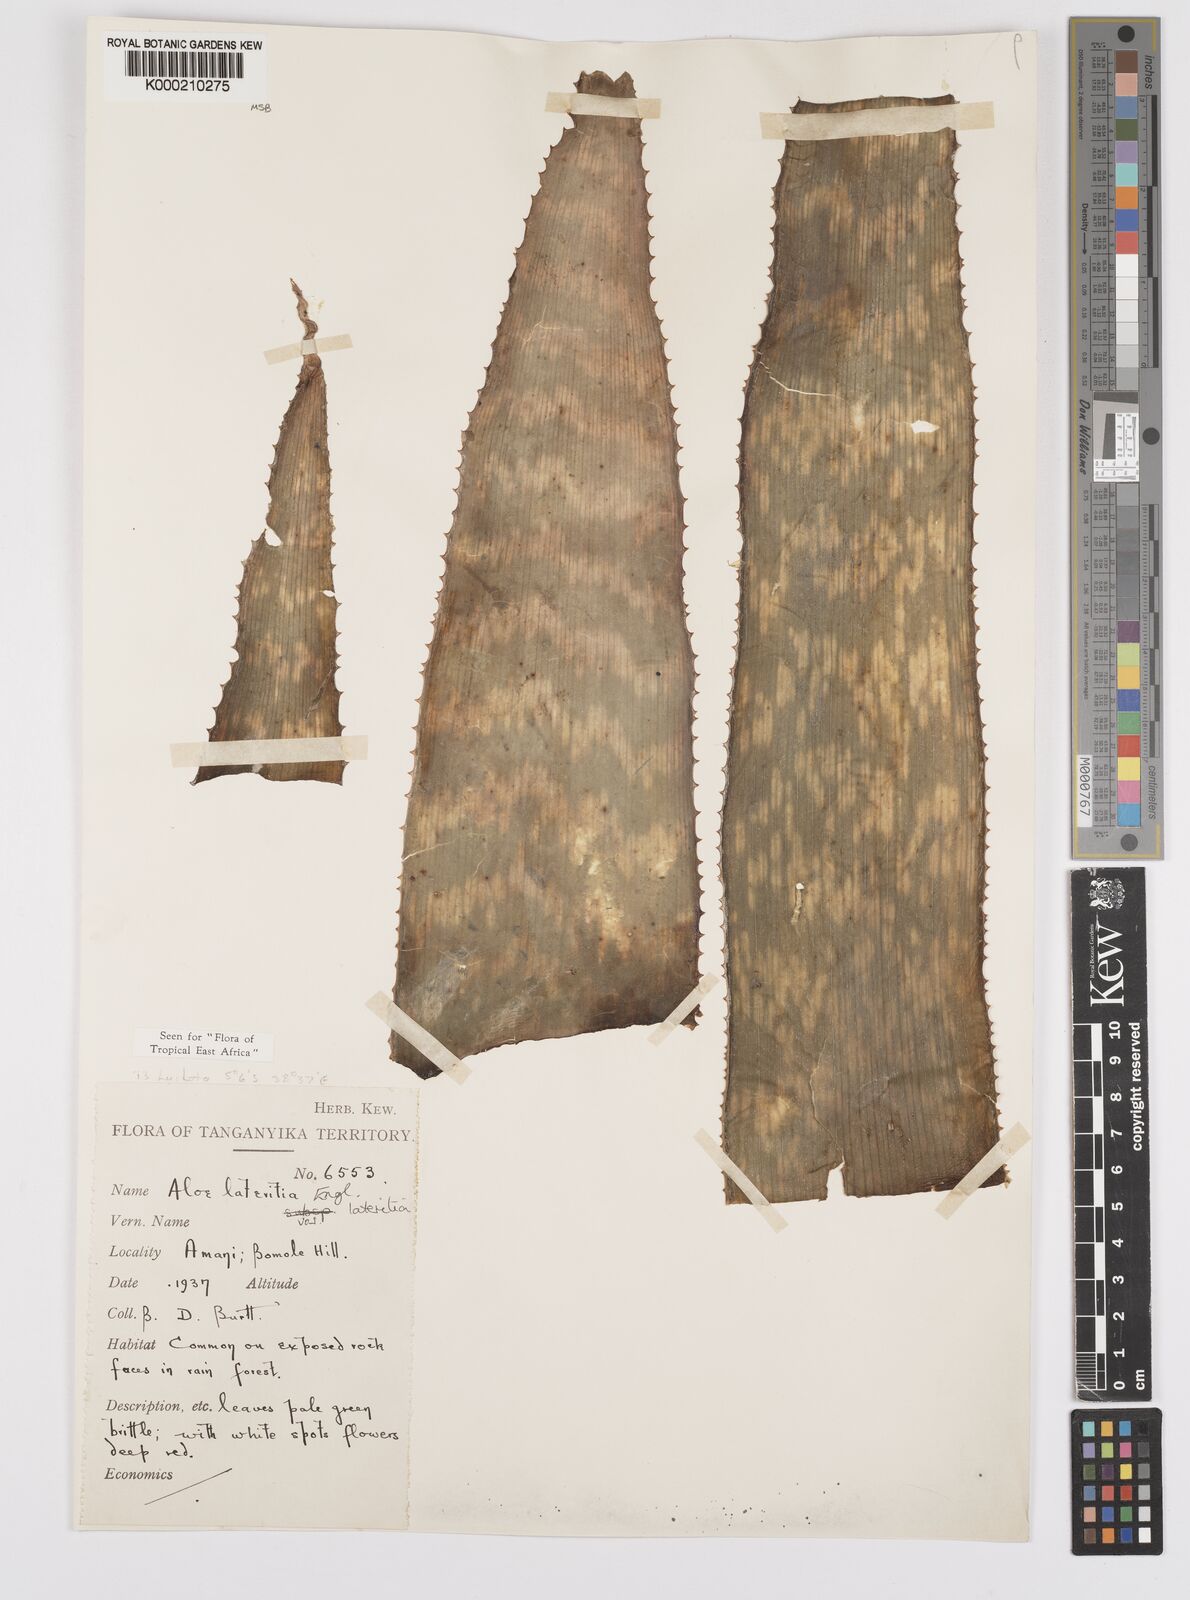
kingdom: Plantae
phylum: Tracheophyta
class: Liliopsida
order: Asparagales
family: Asphodelaceae
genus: Aloe
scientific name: Aloe lateritia
